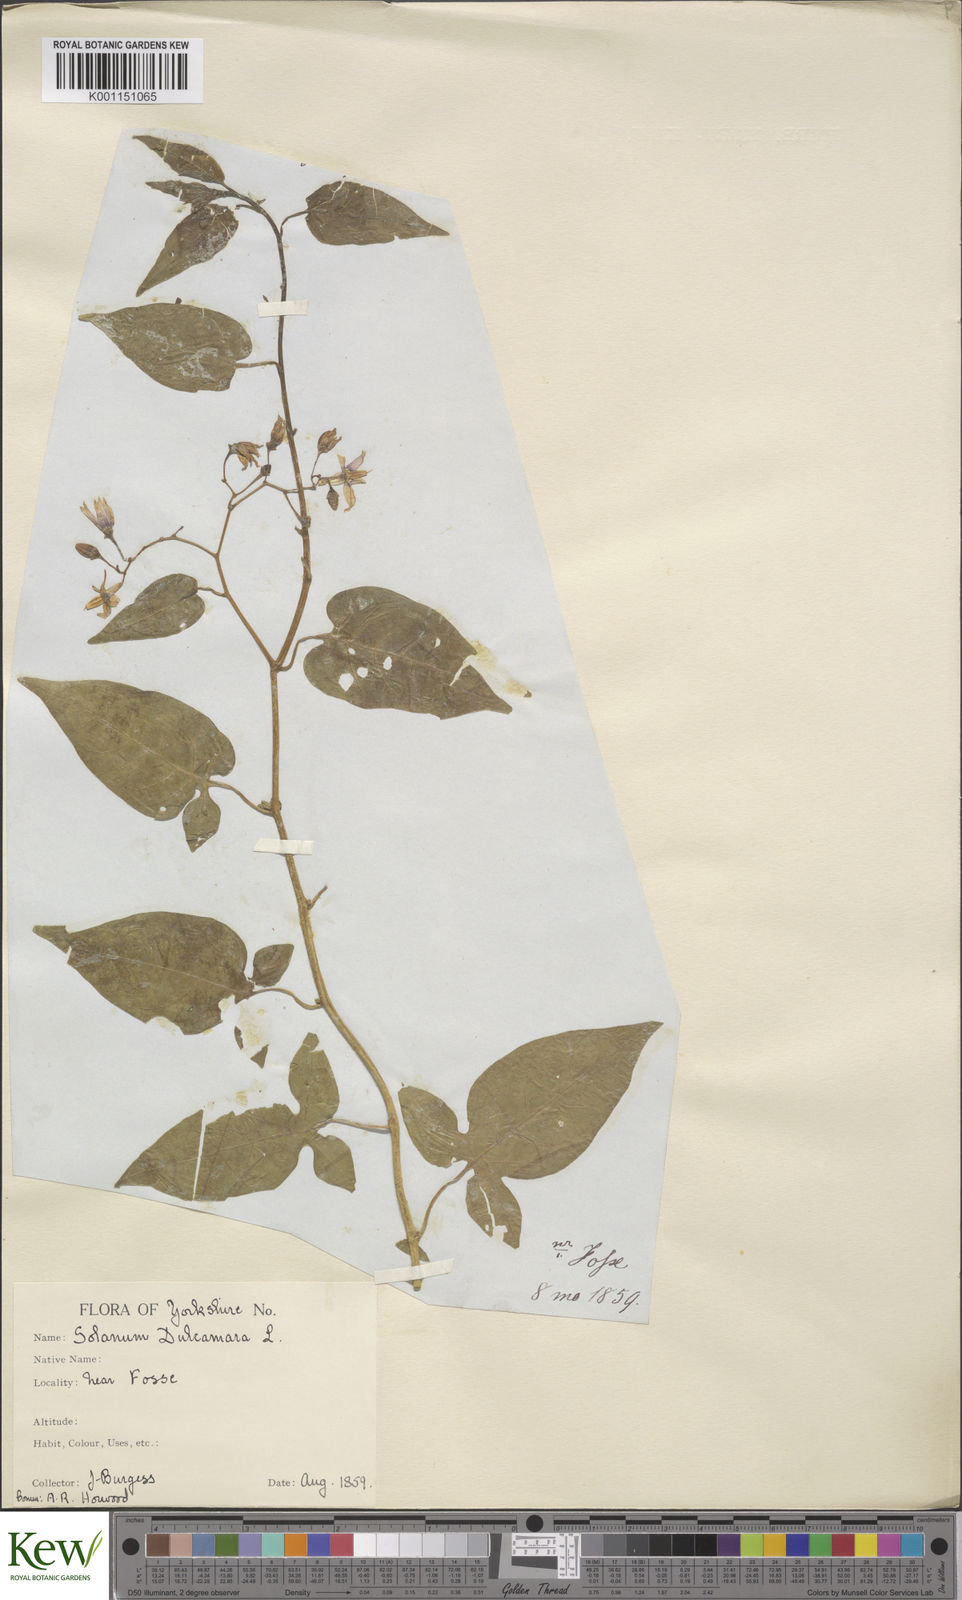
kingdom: Plantae
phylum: Tracheophyta
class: Magnoliopsida
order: Solanales
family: Solanaceae
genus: Solanum
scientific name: Solanum dulcamara
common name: Climbing nightshade
